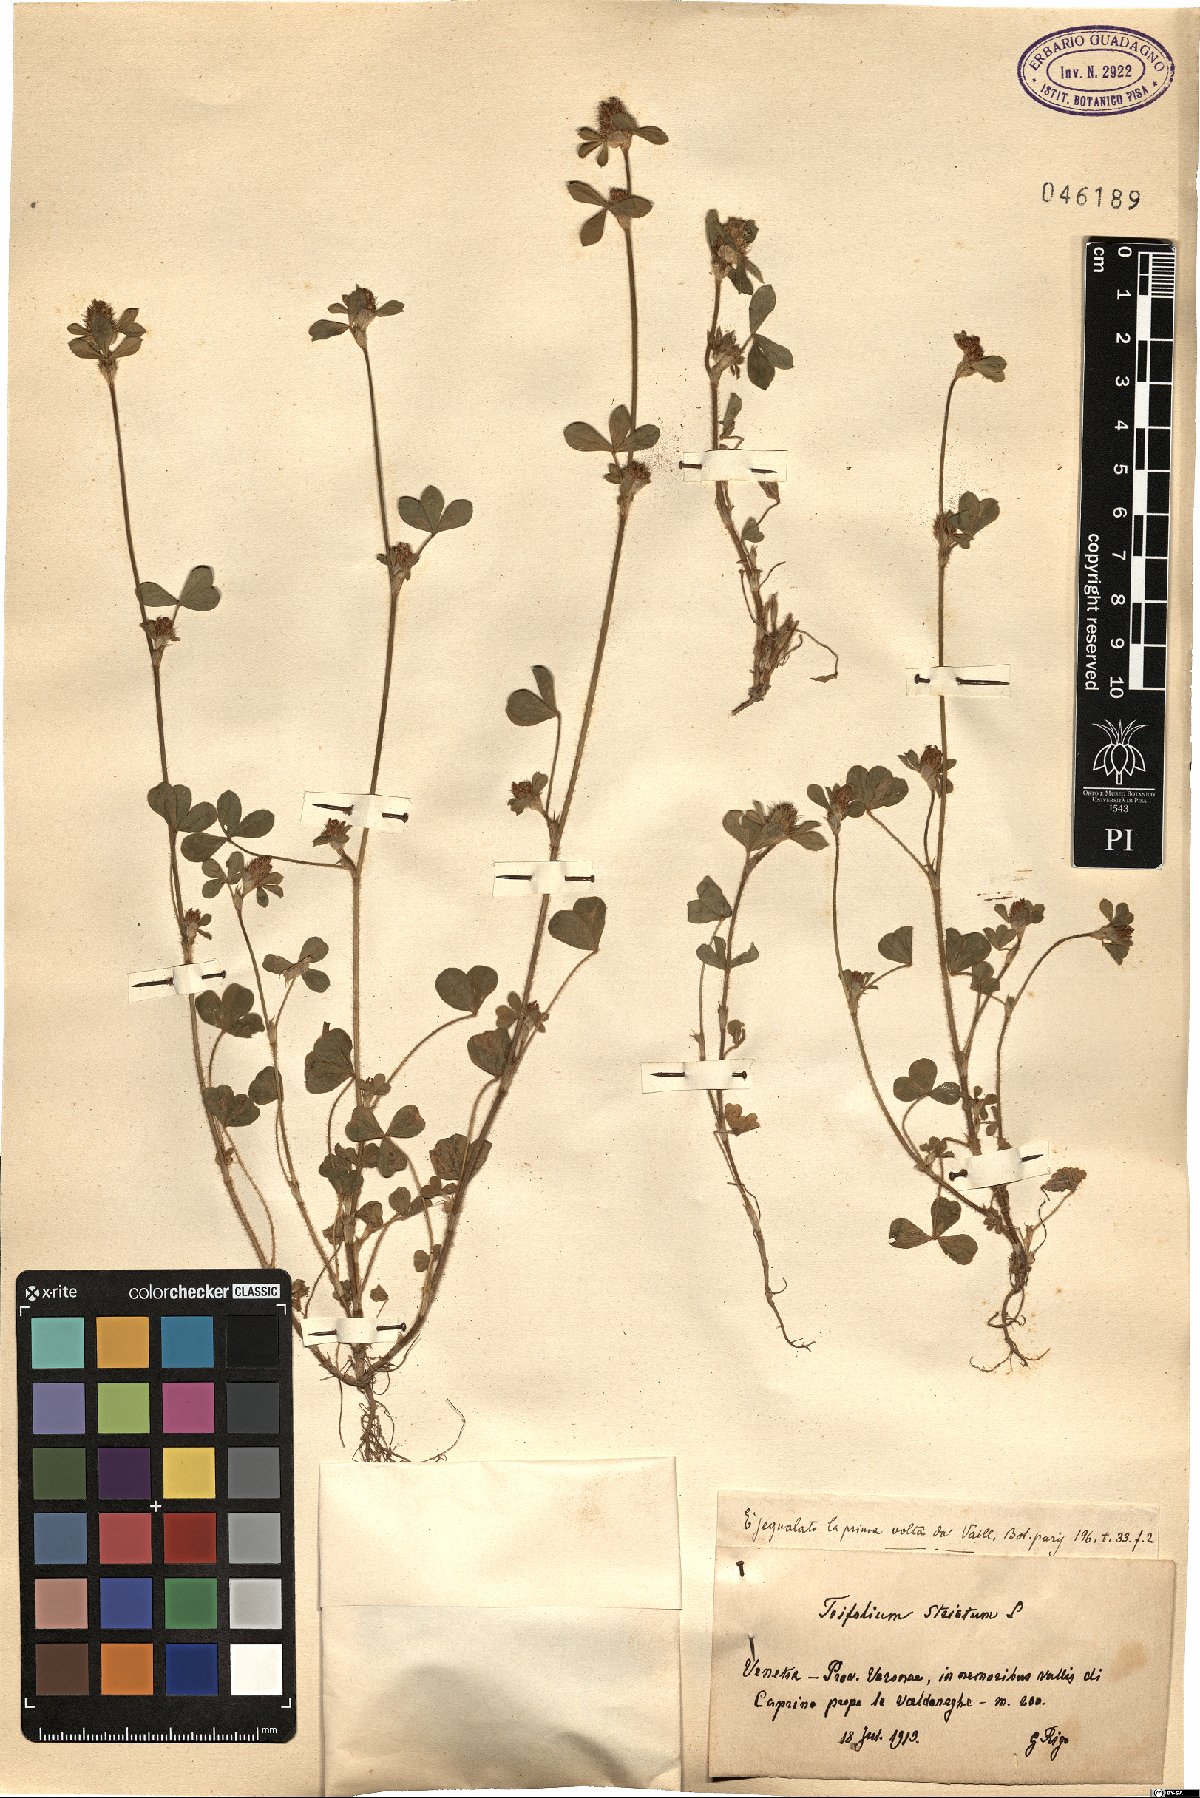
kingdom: Plantae
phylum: Tracheophyta
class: Magnoliopsida
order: Fabales
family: Fabaceae
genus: Trifolium
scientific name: Trifolium striatum
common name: Knotted clover
